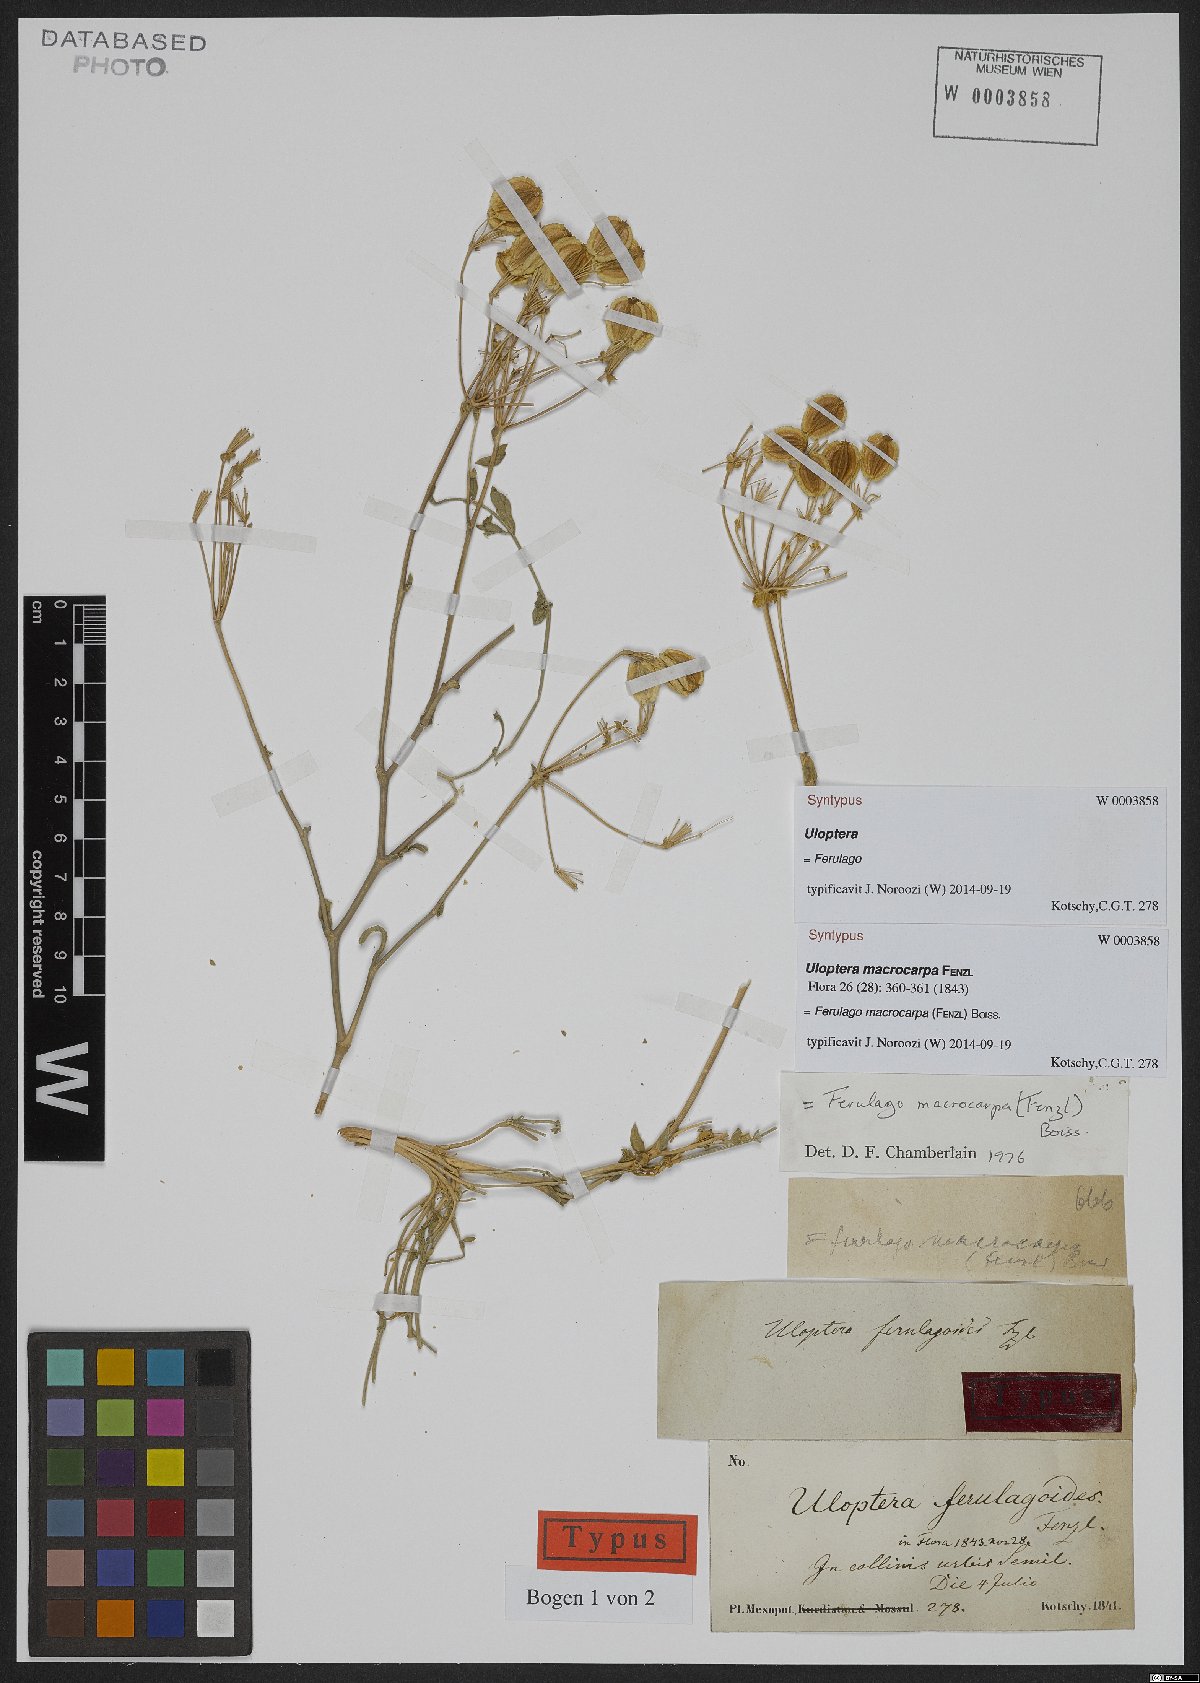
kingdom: Plantae
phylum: Tracheophyta
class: Magnoliopsida
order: Apiales
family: Apiaceae
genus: Ferulago
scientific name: Ferulago macrocarpa
